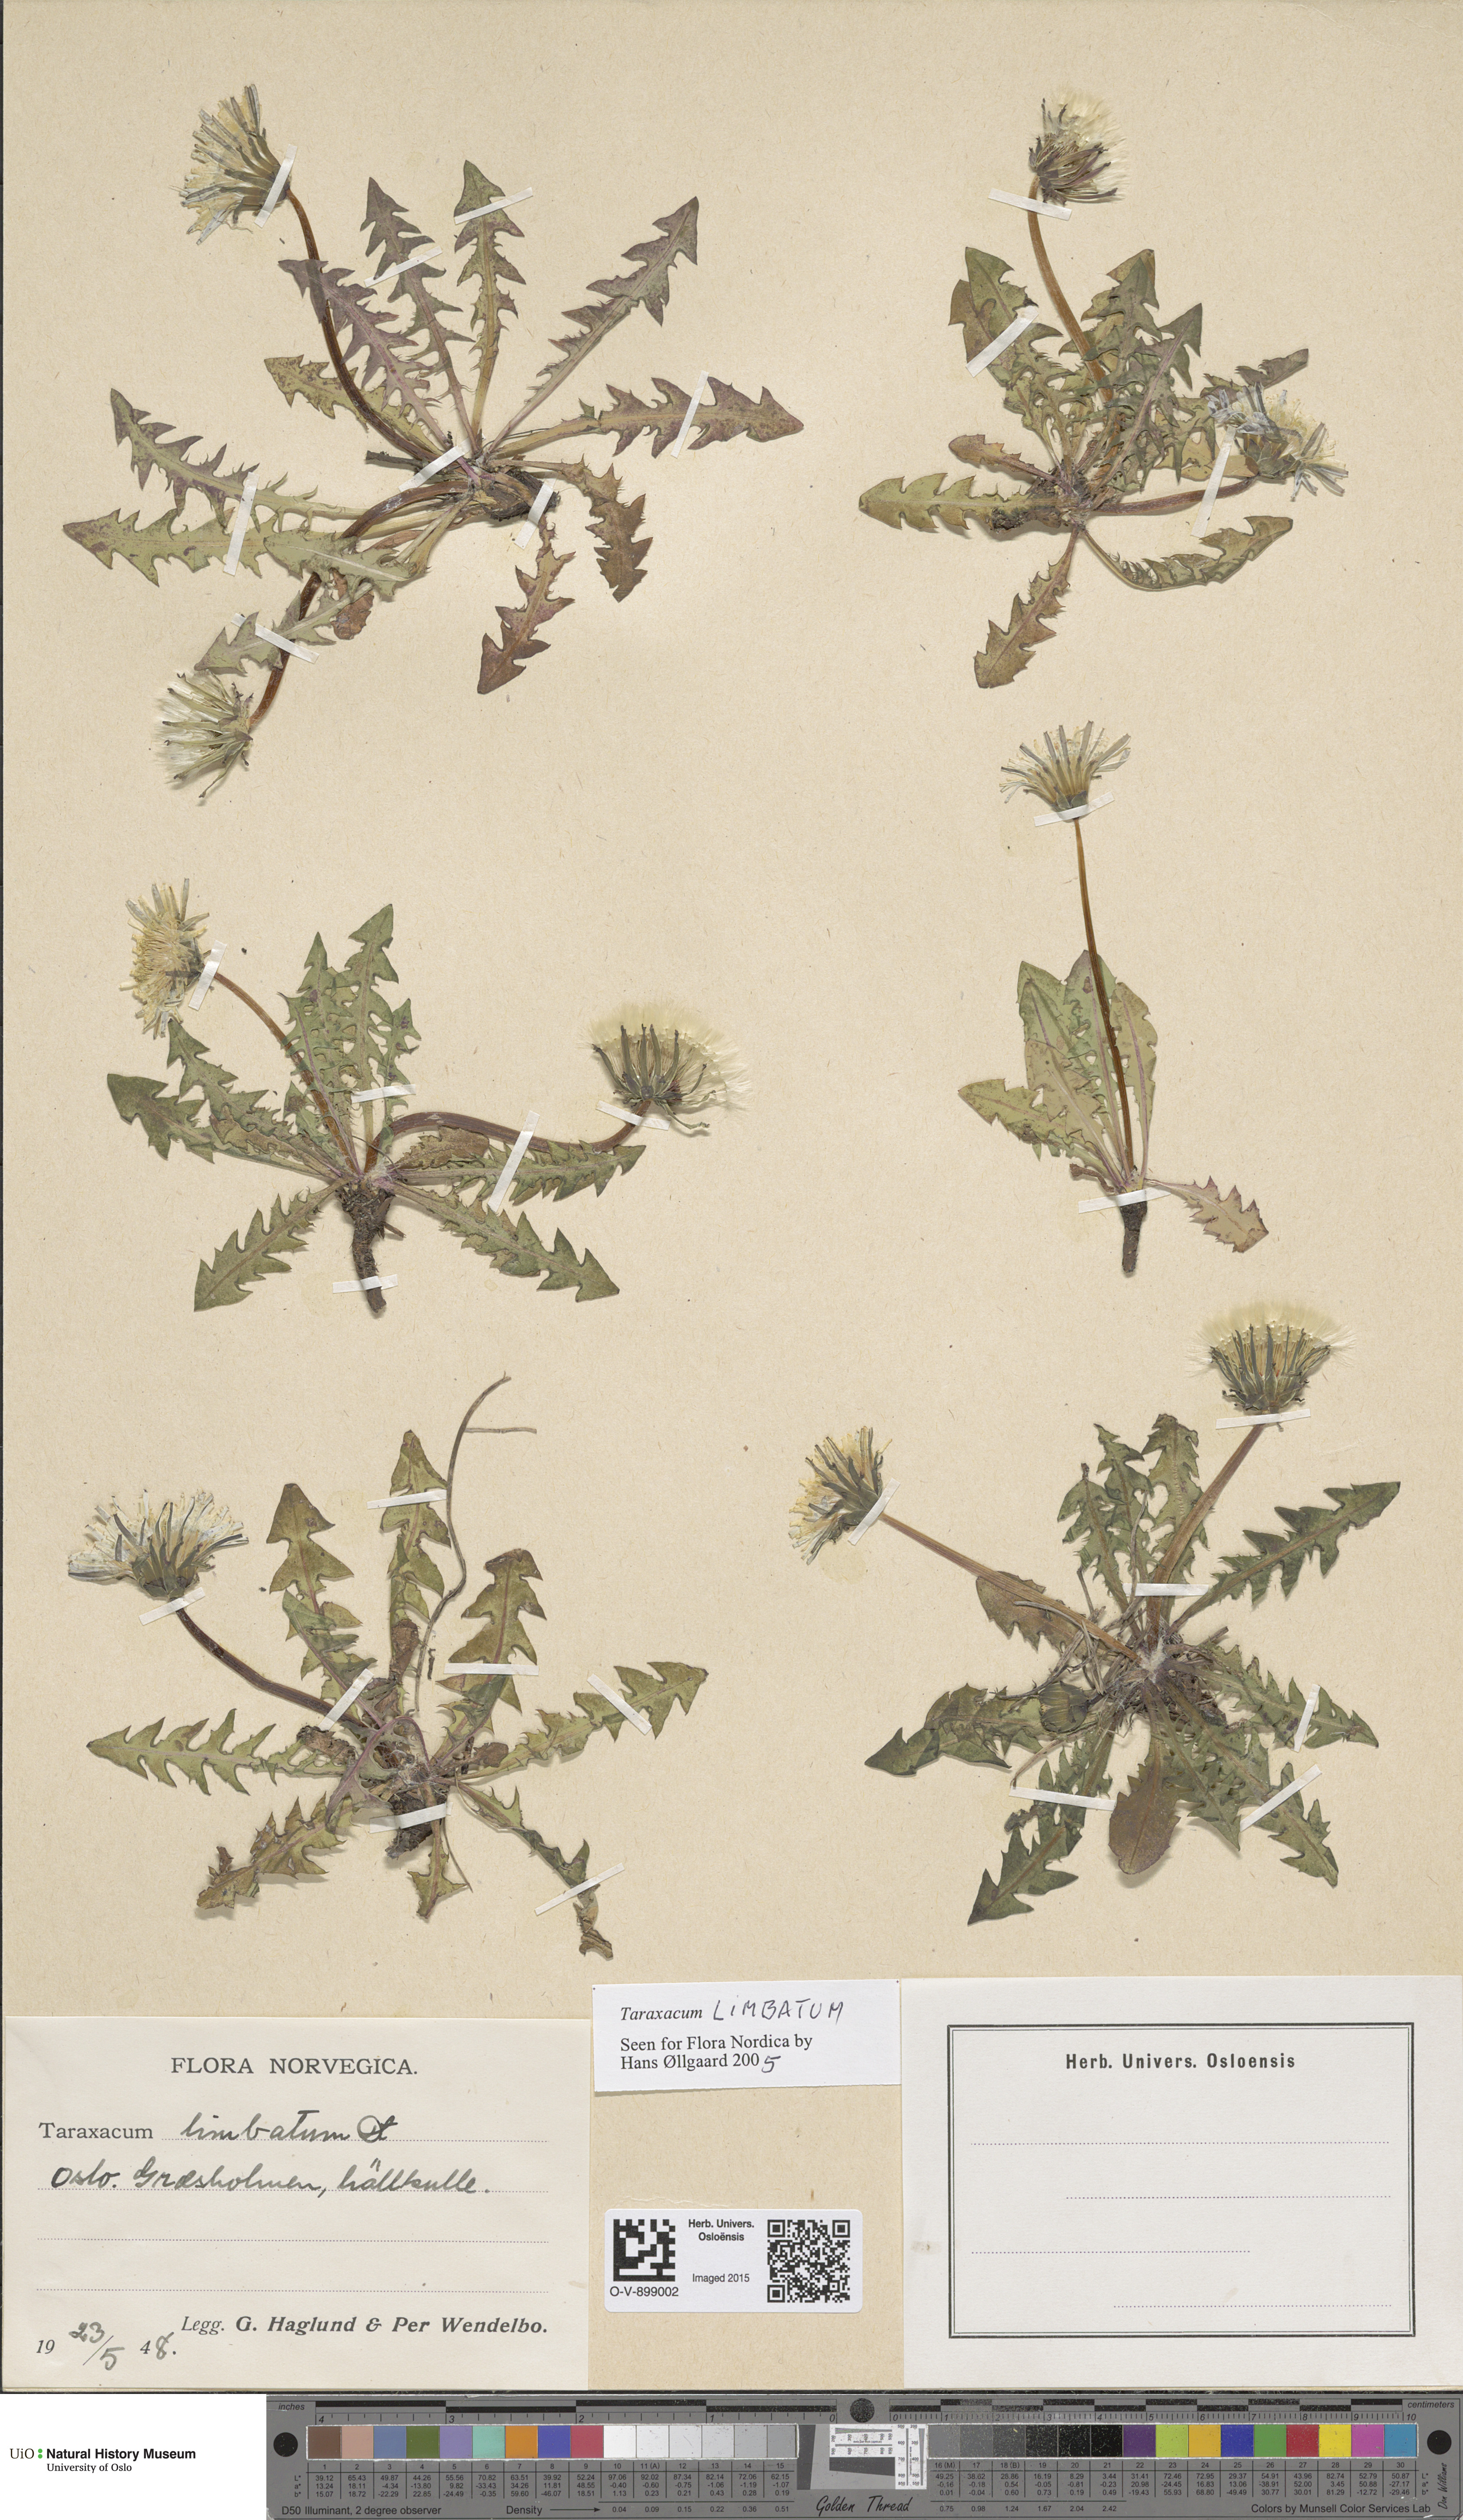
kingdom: Plantae
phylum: Tracheophyta
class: Magnoliopsida
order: Asterales
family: Asteraceae
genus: Taraxacum
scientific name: Taraxacum limbatum
